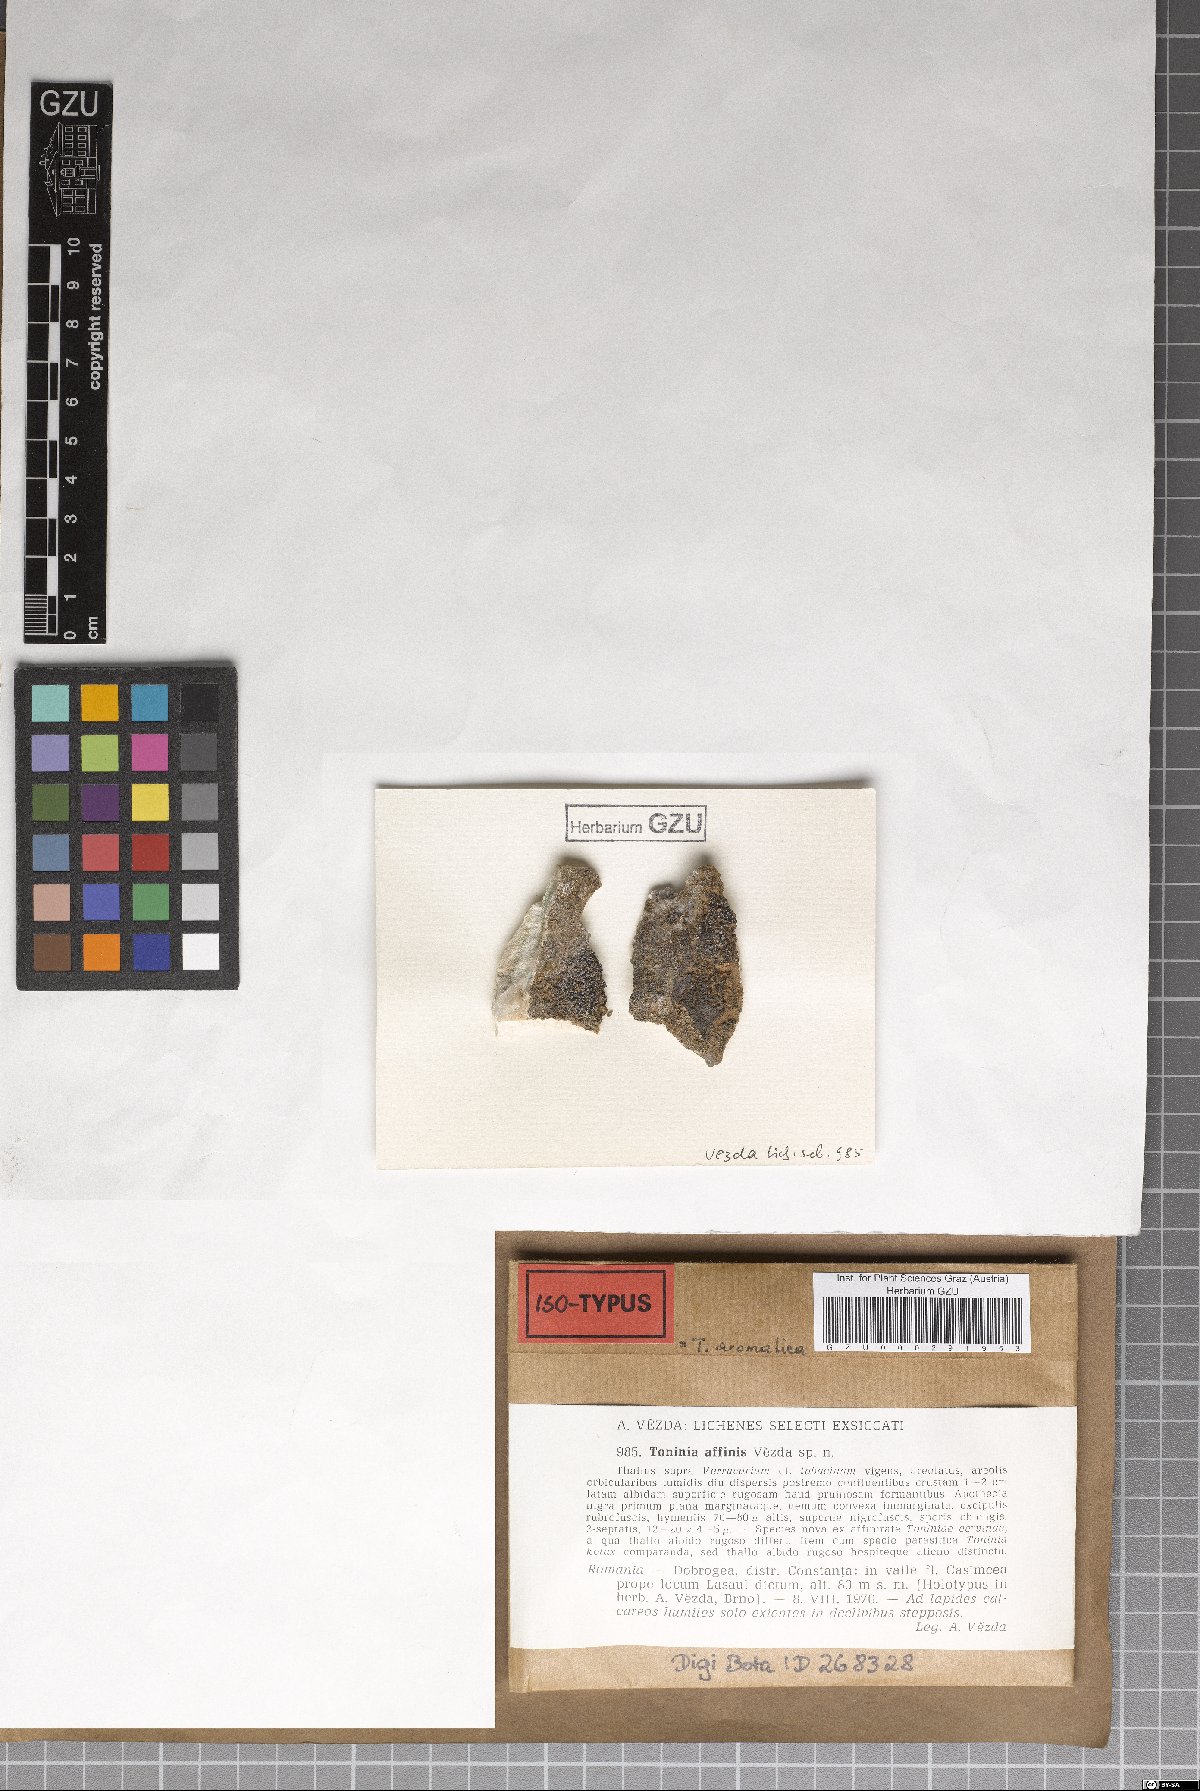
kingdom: Fungi
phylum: Ascomycota
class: Lecanoromycetes
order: Lecanorales
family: Ramalinaceae
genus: Toniniopsis
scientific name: Toniniopsis aromatica
